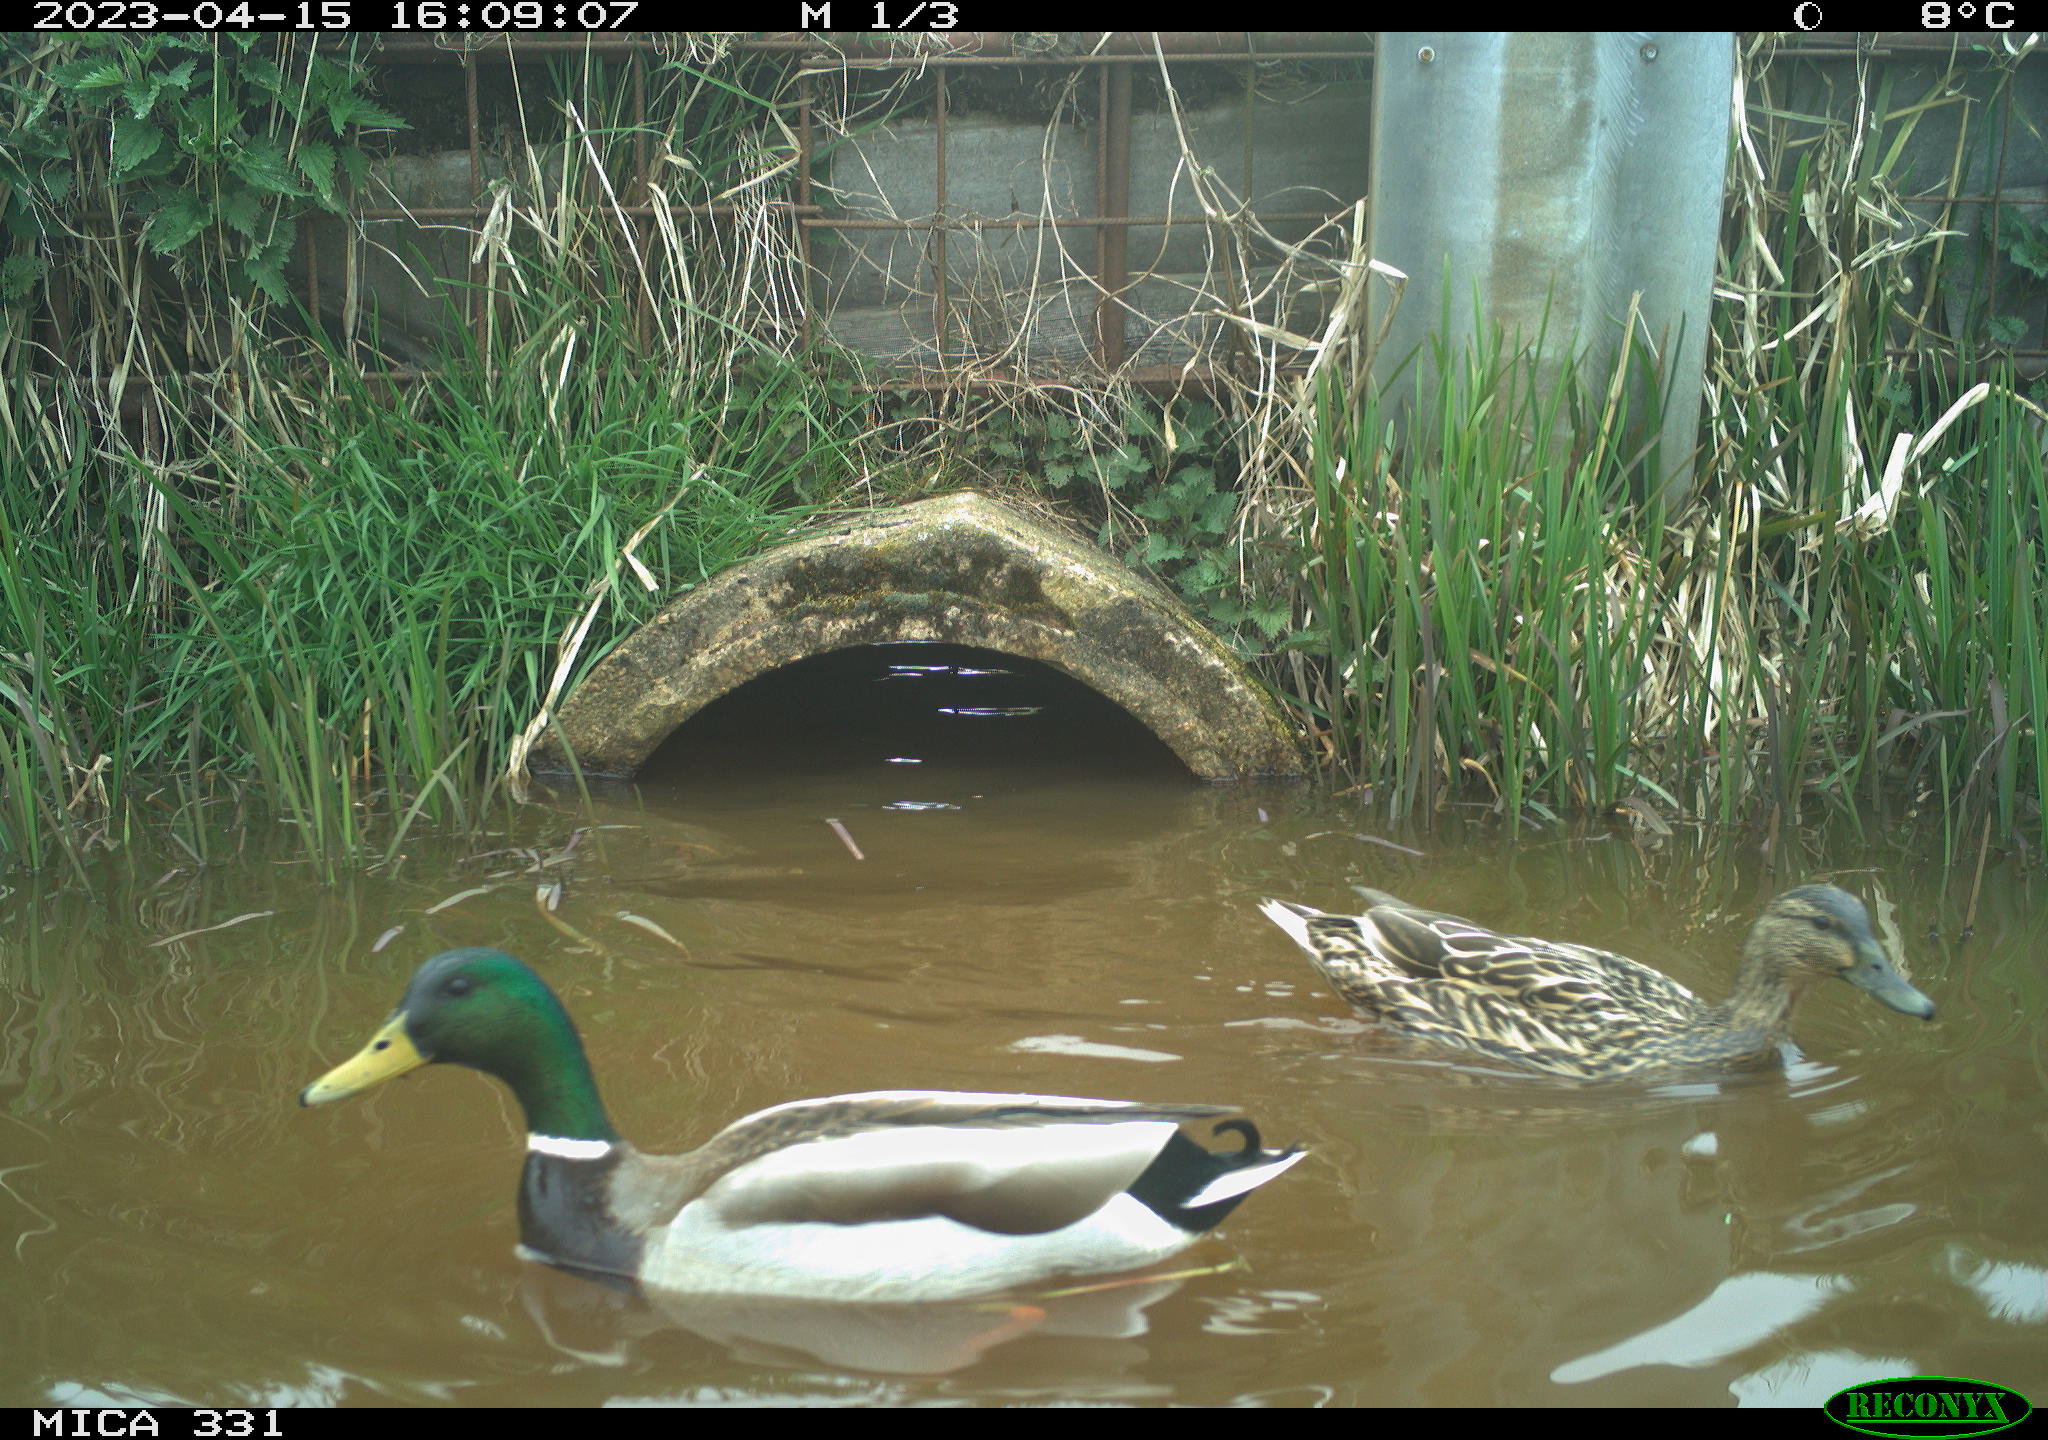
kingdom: Animalia
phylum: Chordata
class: Aves
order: Anseriformes
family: Anatidae
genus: Anas
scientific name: Anas
